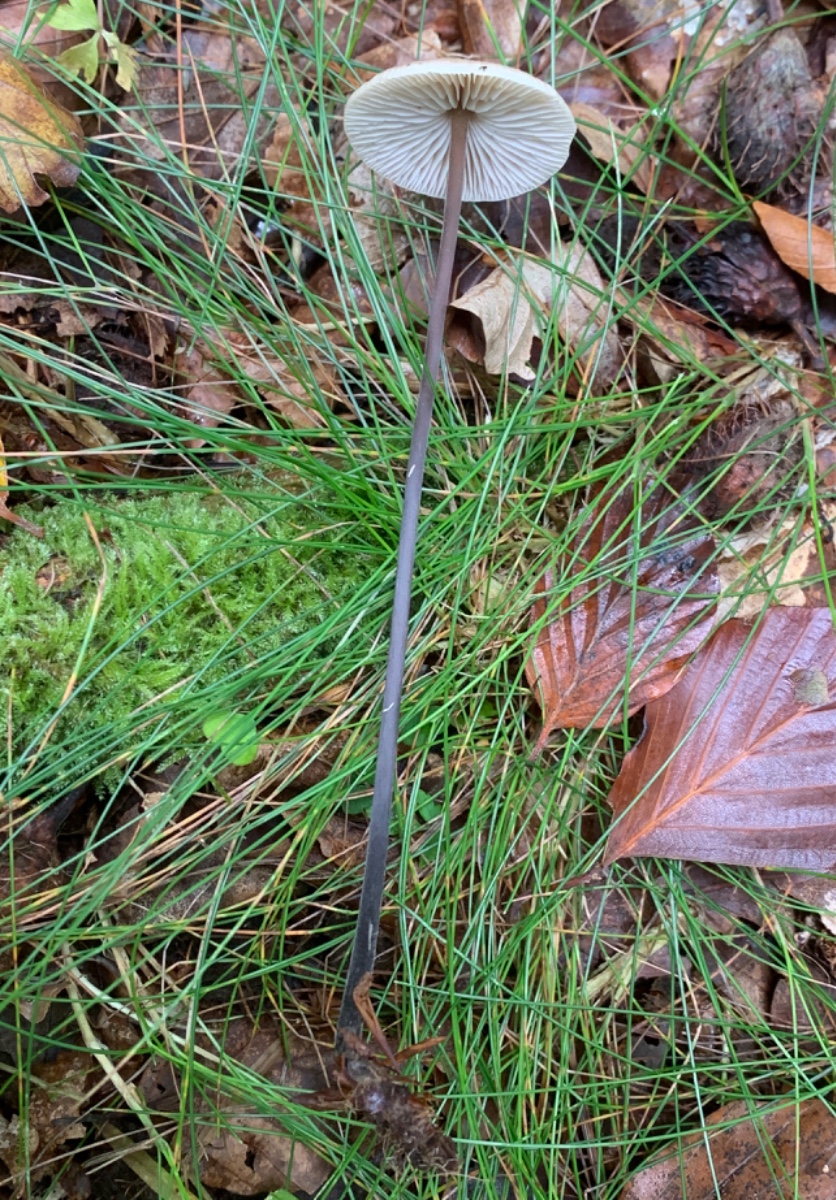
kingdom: Fungi
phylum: Basidiomycota
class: Agaricomycetes
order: Agaricales
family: Omphalotaceae
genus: Mycetinis
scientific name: Mycetinis alliaceus
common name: stor løghat
